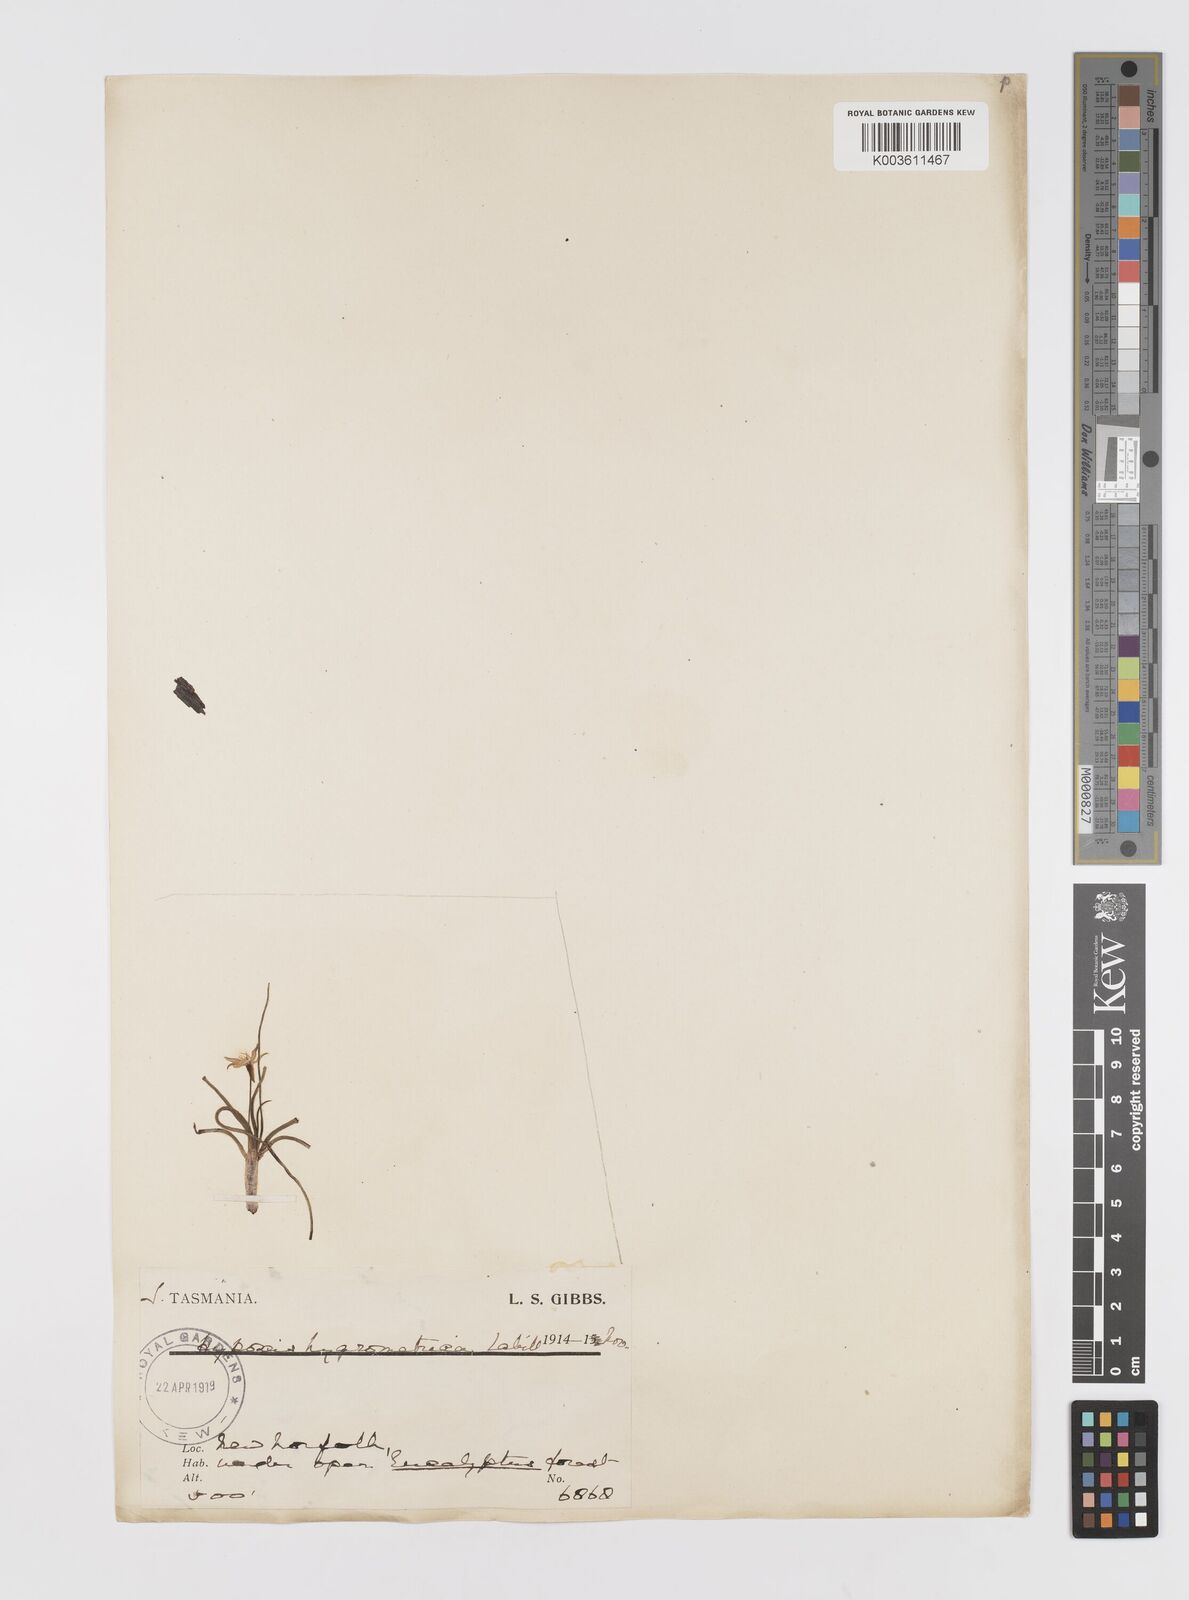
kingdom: Plantae
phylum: Tracheophyta
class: Liliopsida
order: Asparagales
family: Hypoxidaceae
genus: Hypoxis
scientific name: Hypoxis hygrometrica
